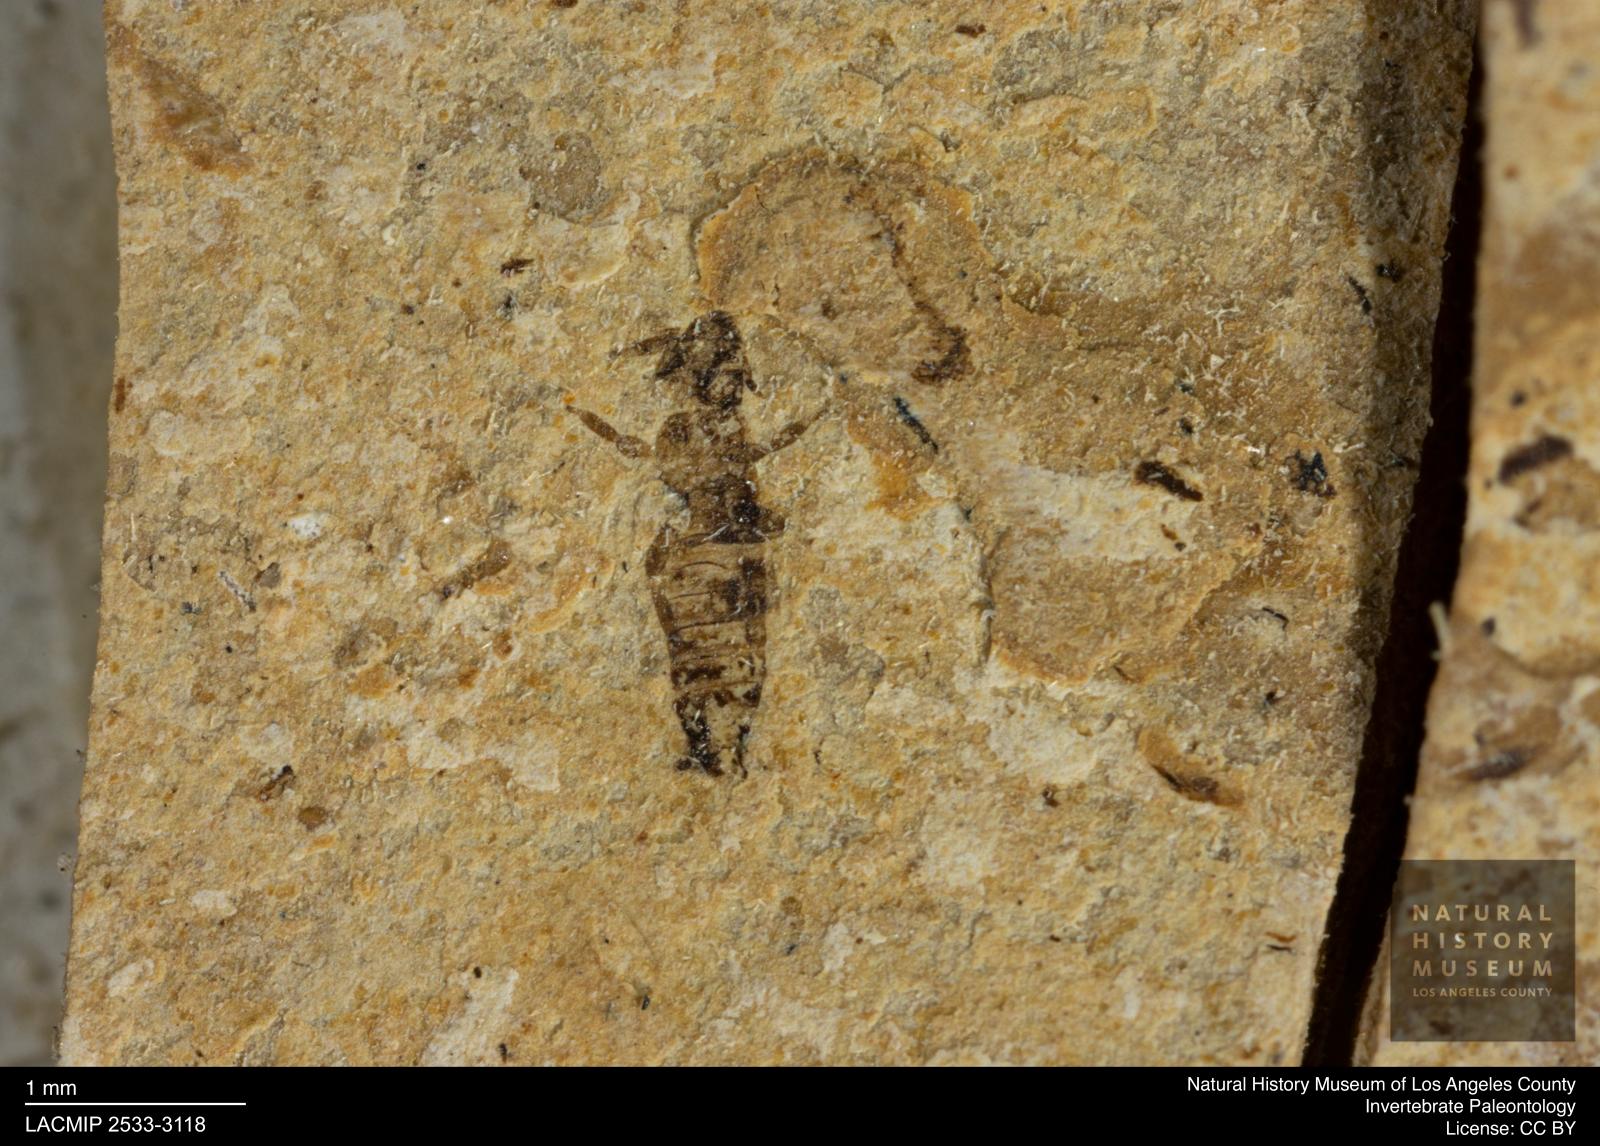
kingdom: Animalia
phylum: Arthropoda
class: Insecta
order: Thysanoptera
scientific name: Thysanoptera
